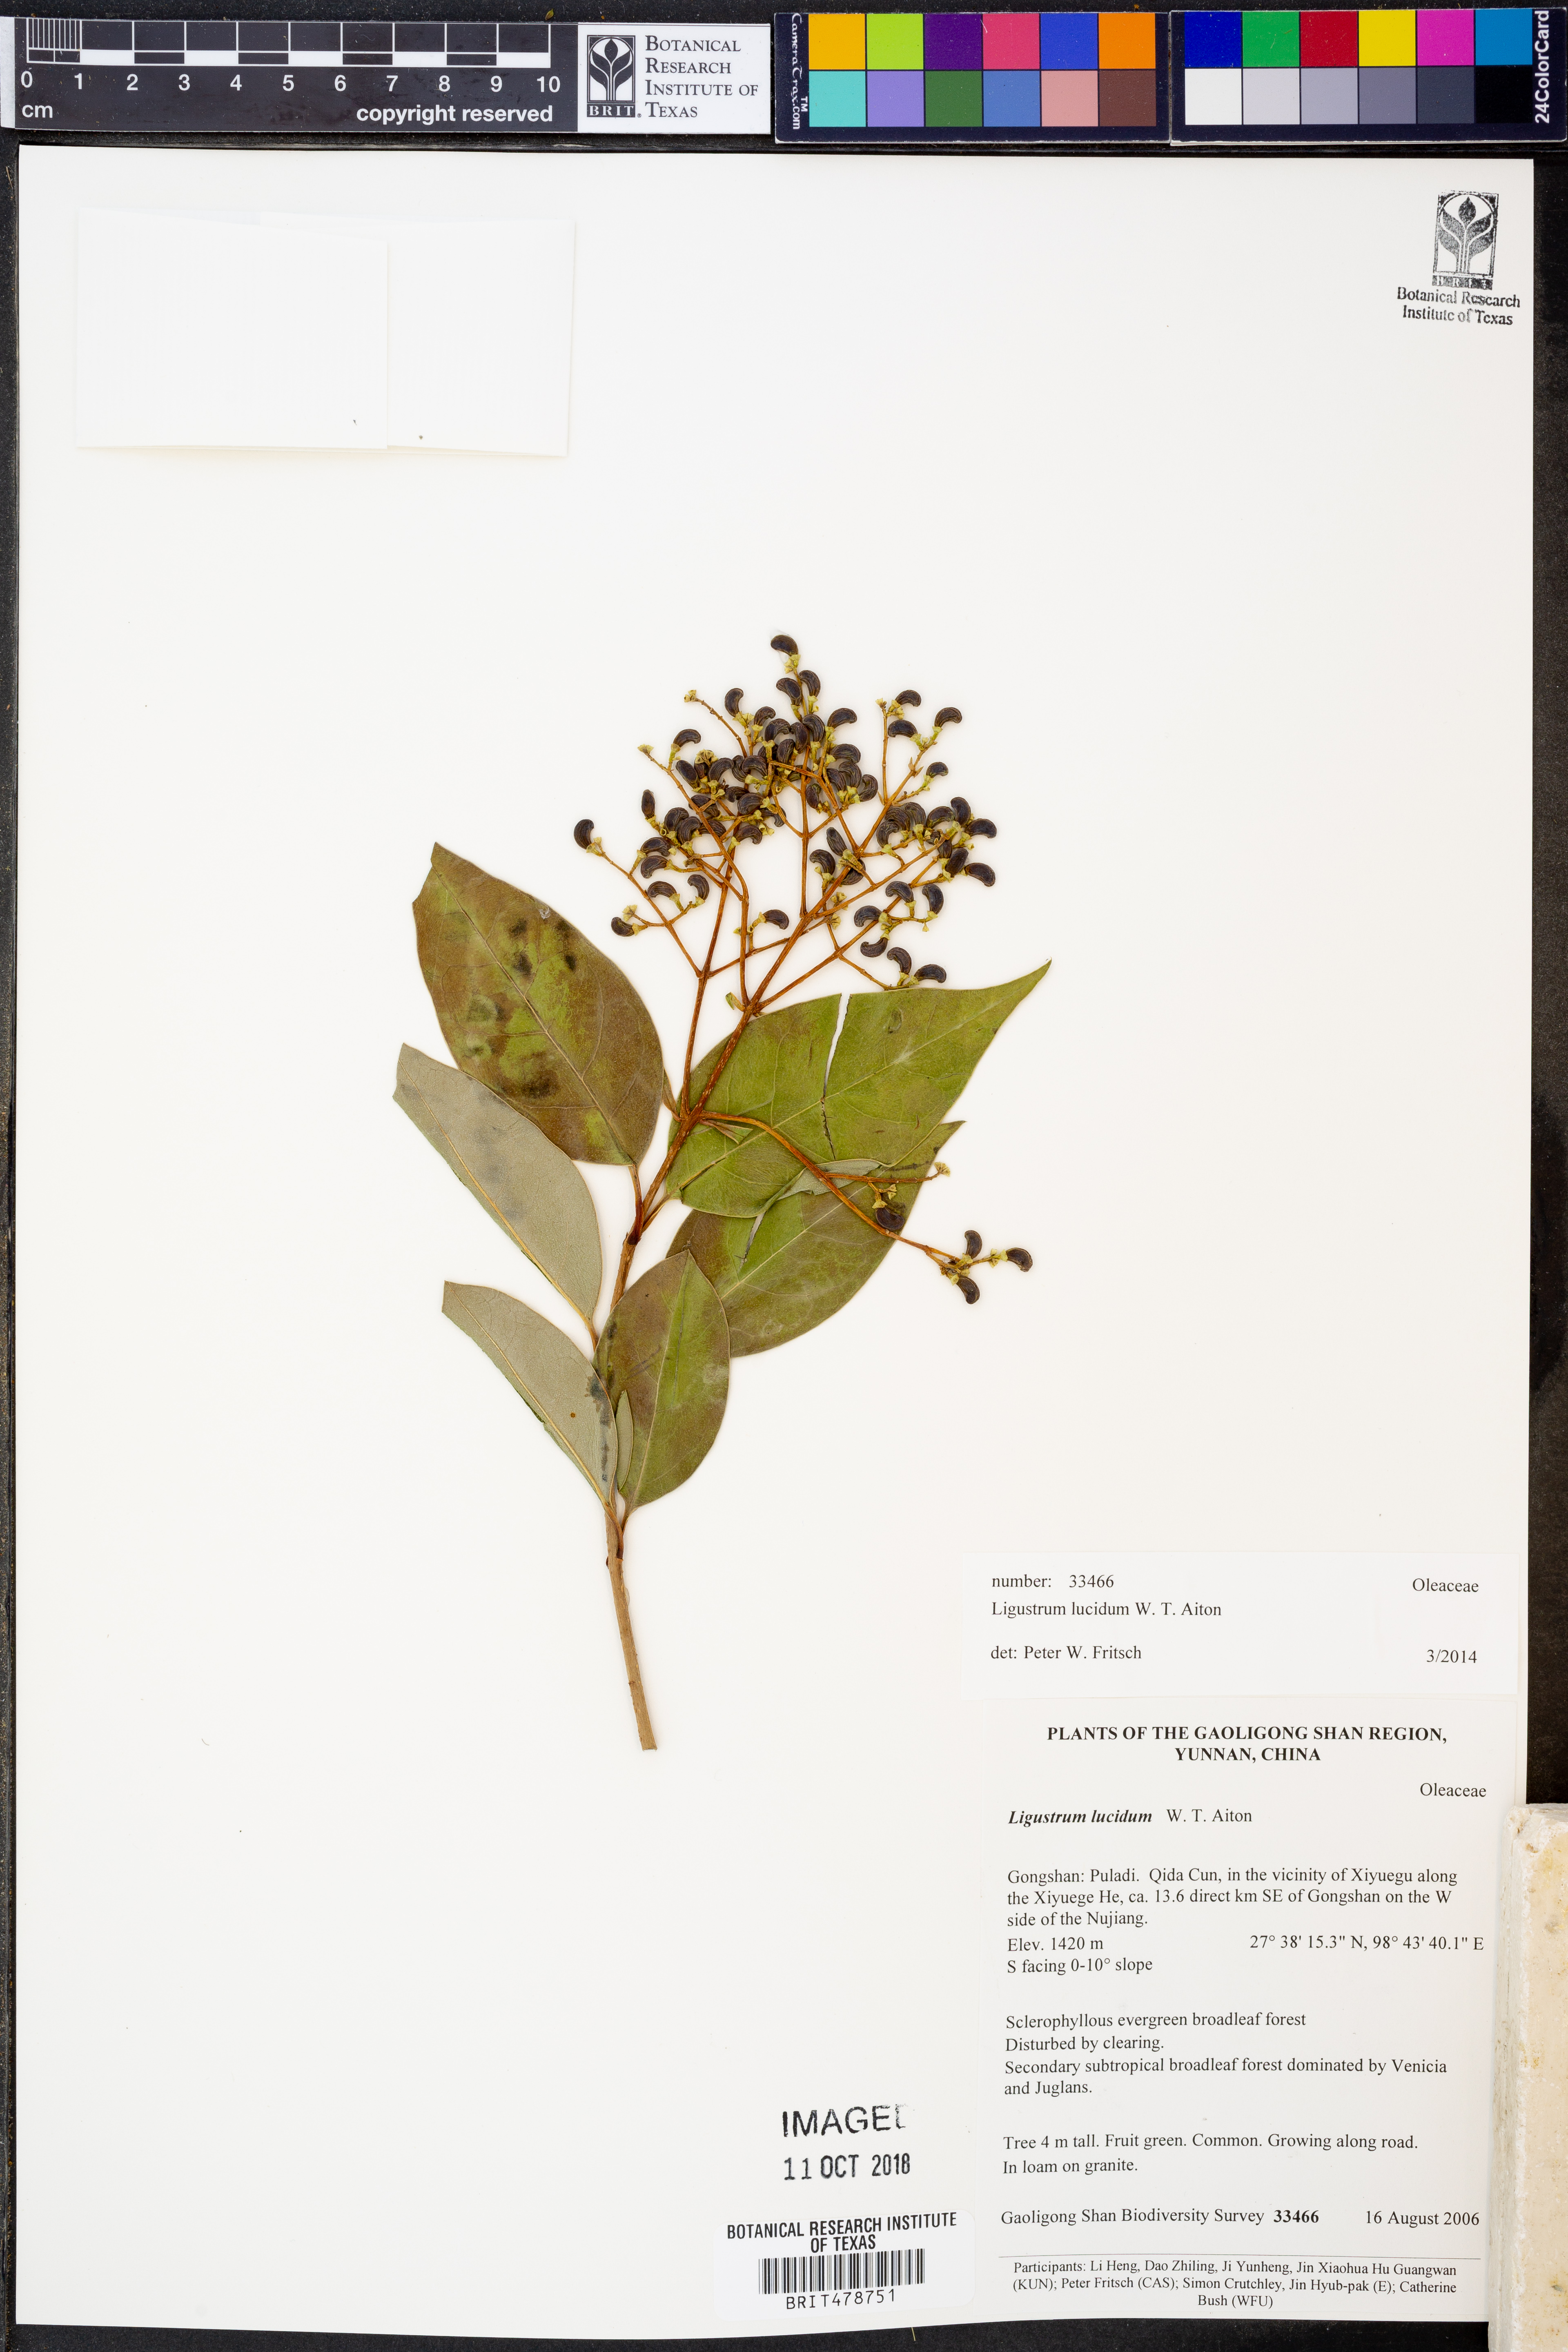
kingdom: Plantae
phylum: Tracheophyta
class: Magnoliopsida
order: Lamiales
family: Oleaceae
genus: Ligustrum
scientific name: Ligustrum lucidum
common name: Glossy privet
